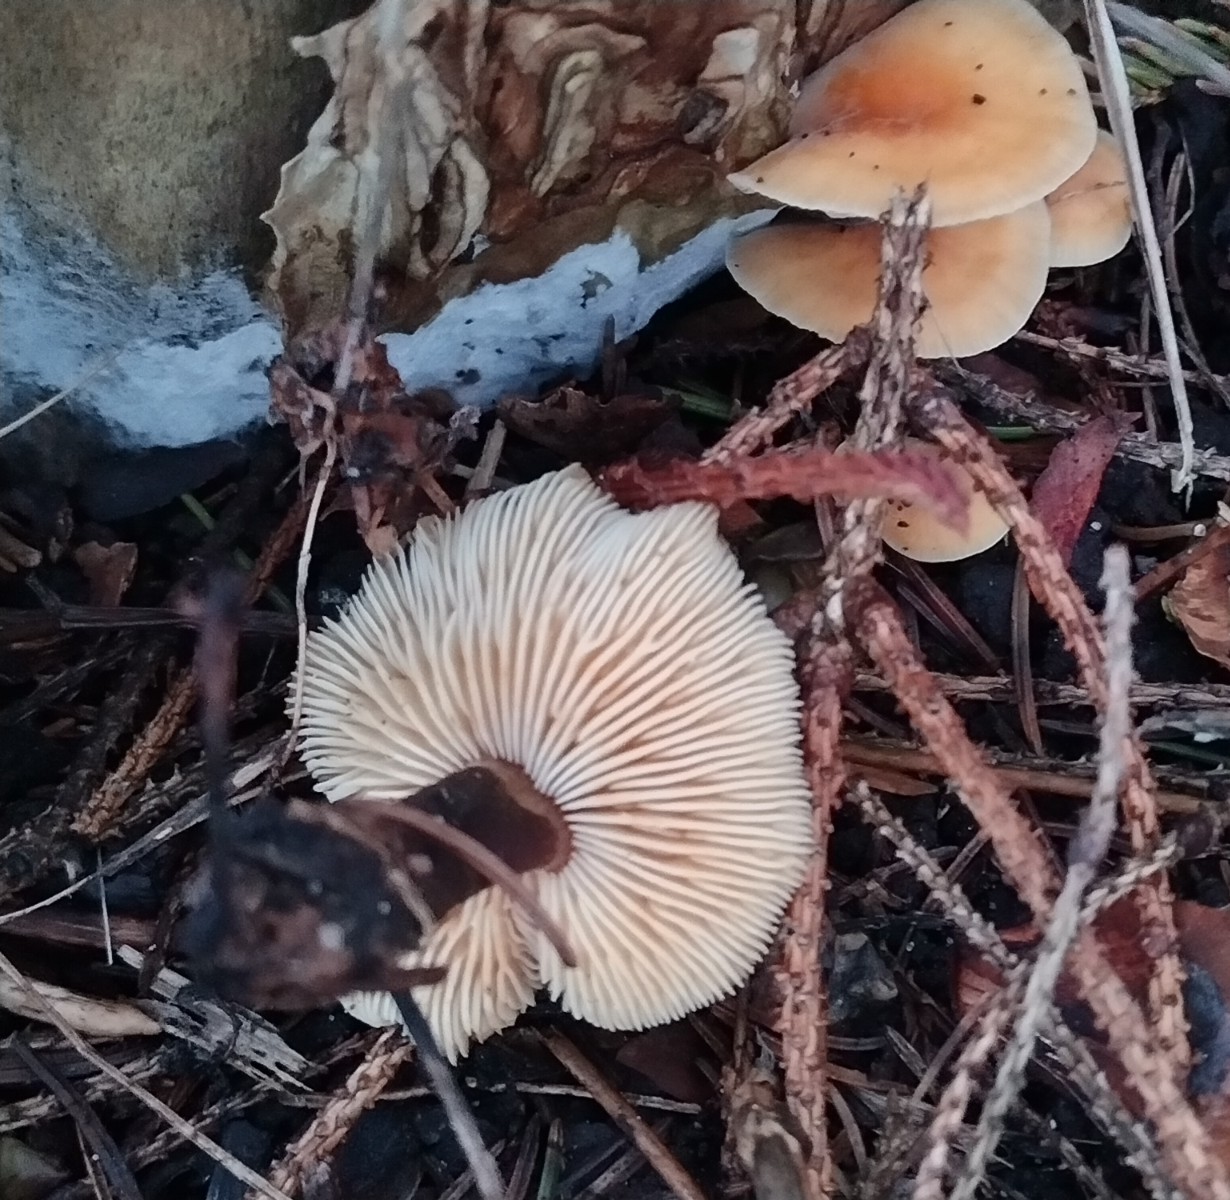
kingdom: Fungi
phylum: Basidiomycota
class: Agaricomycetes
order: Agaricales
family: Physalacriaceae
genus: Flammulina
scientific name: Flammulina velutipes
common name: gul fløjlsfod
